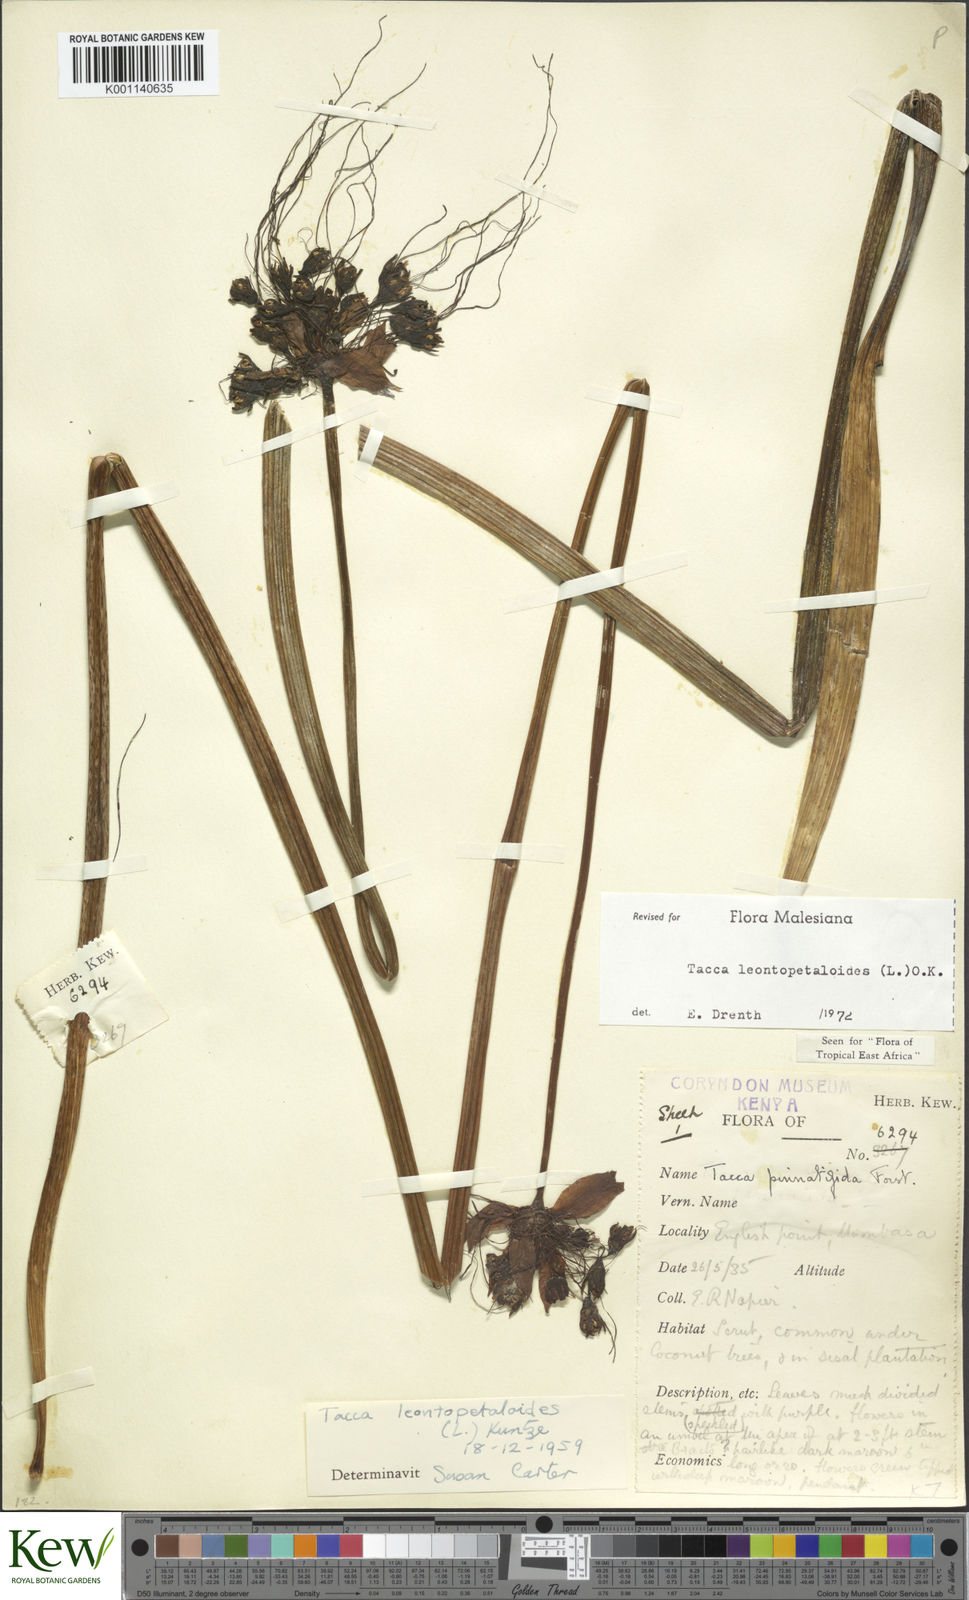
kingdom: Plantae
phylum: Tracheophyta
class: Liliopsida
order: Dioscoreales
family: Dioscoreaceae
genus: Tacca
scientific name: Tacca leontopetaloides
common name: Arrowroot
